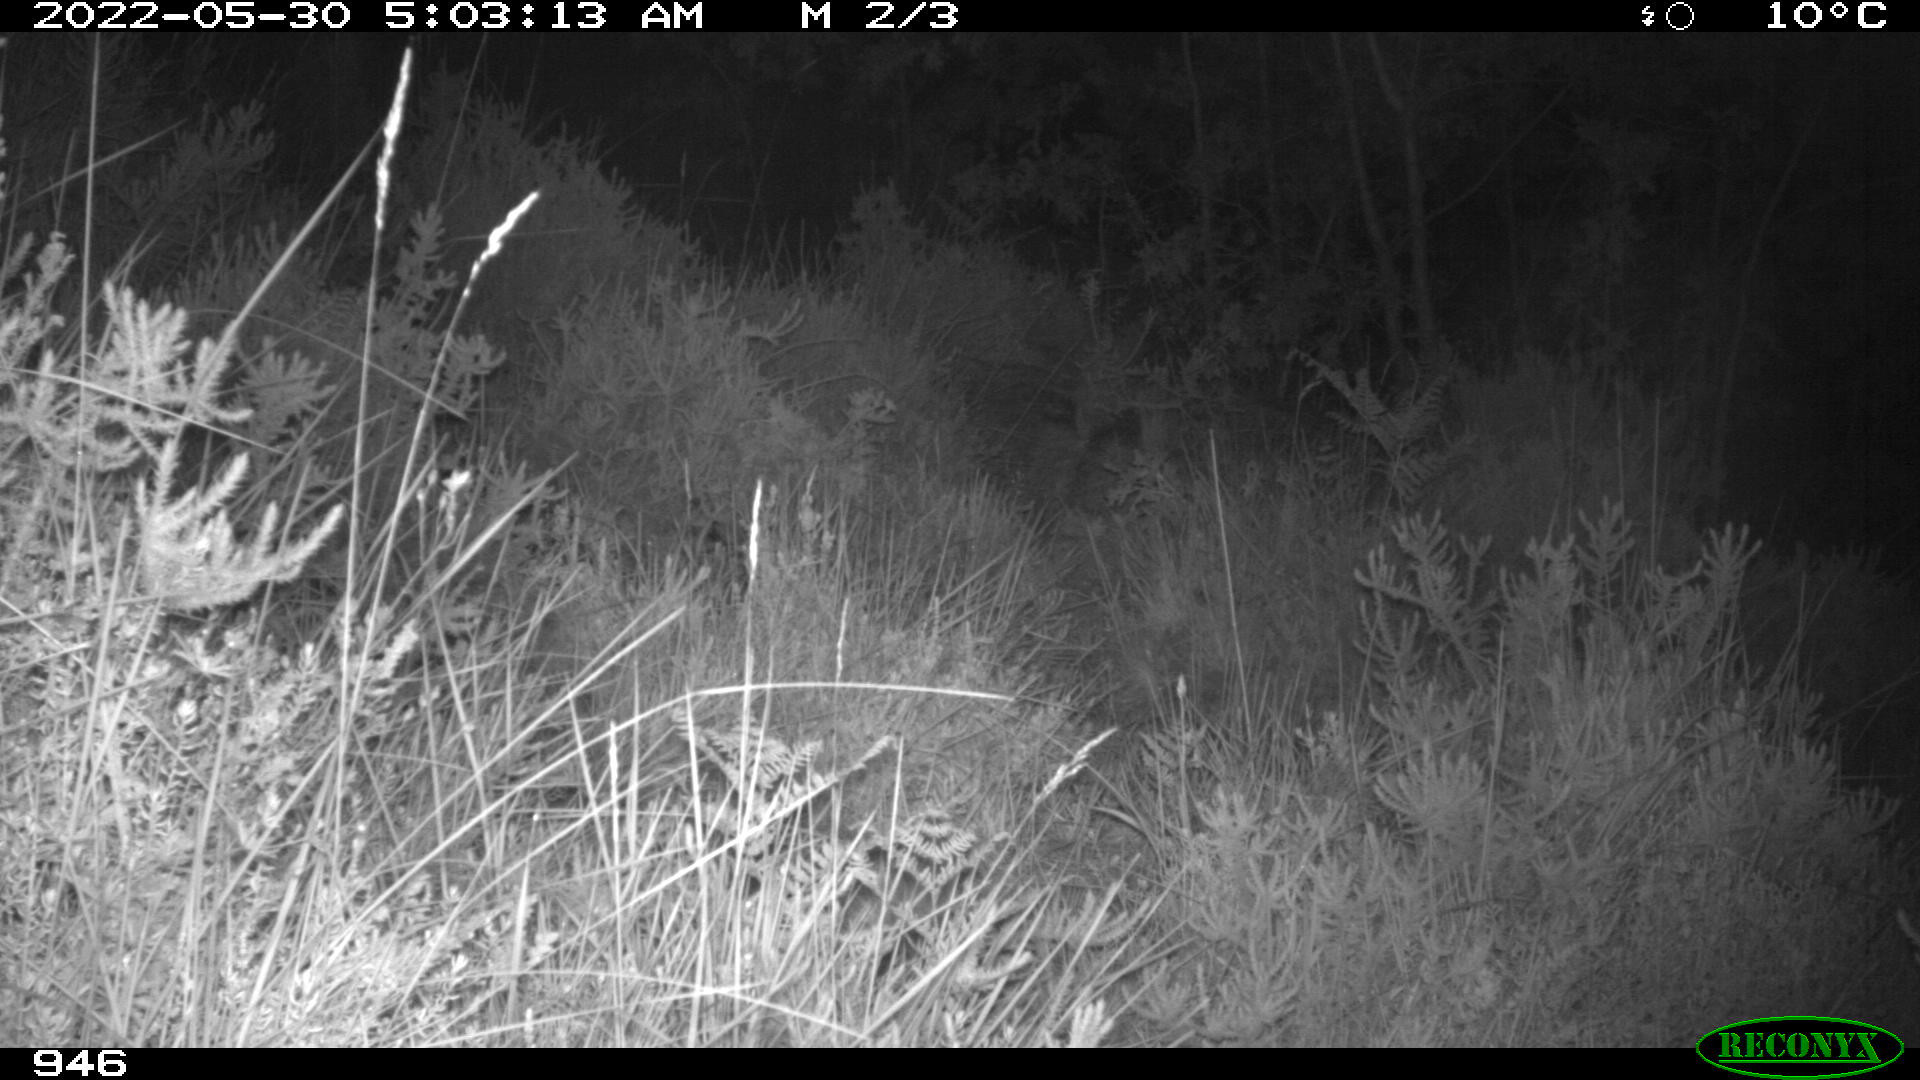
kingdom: Animalia
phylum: Chordata
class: Mammalia
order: Artiodactyla
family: Cervidae
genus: Capreolus
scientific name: Capreolus capreolus
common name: Western roe deer
